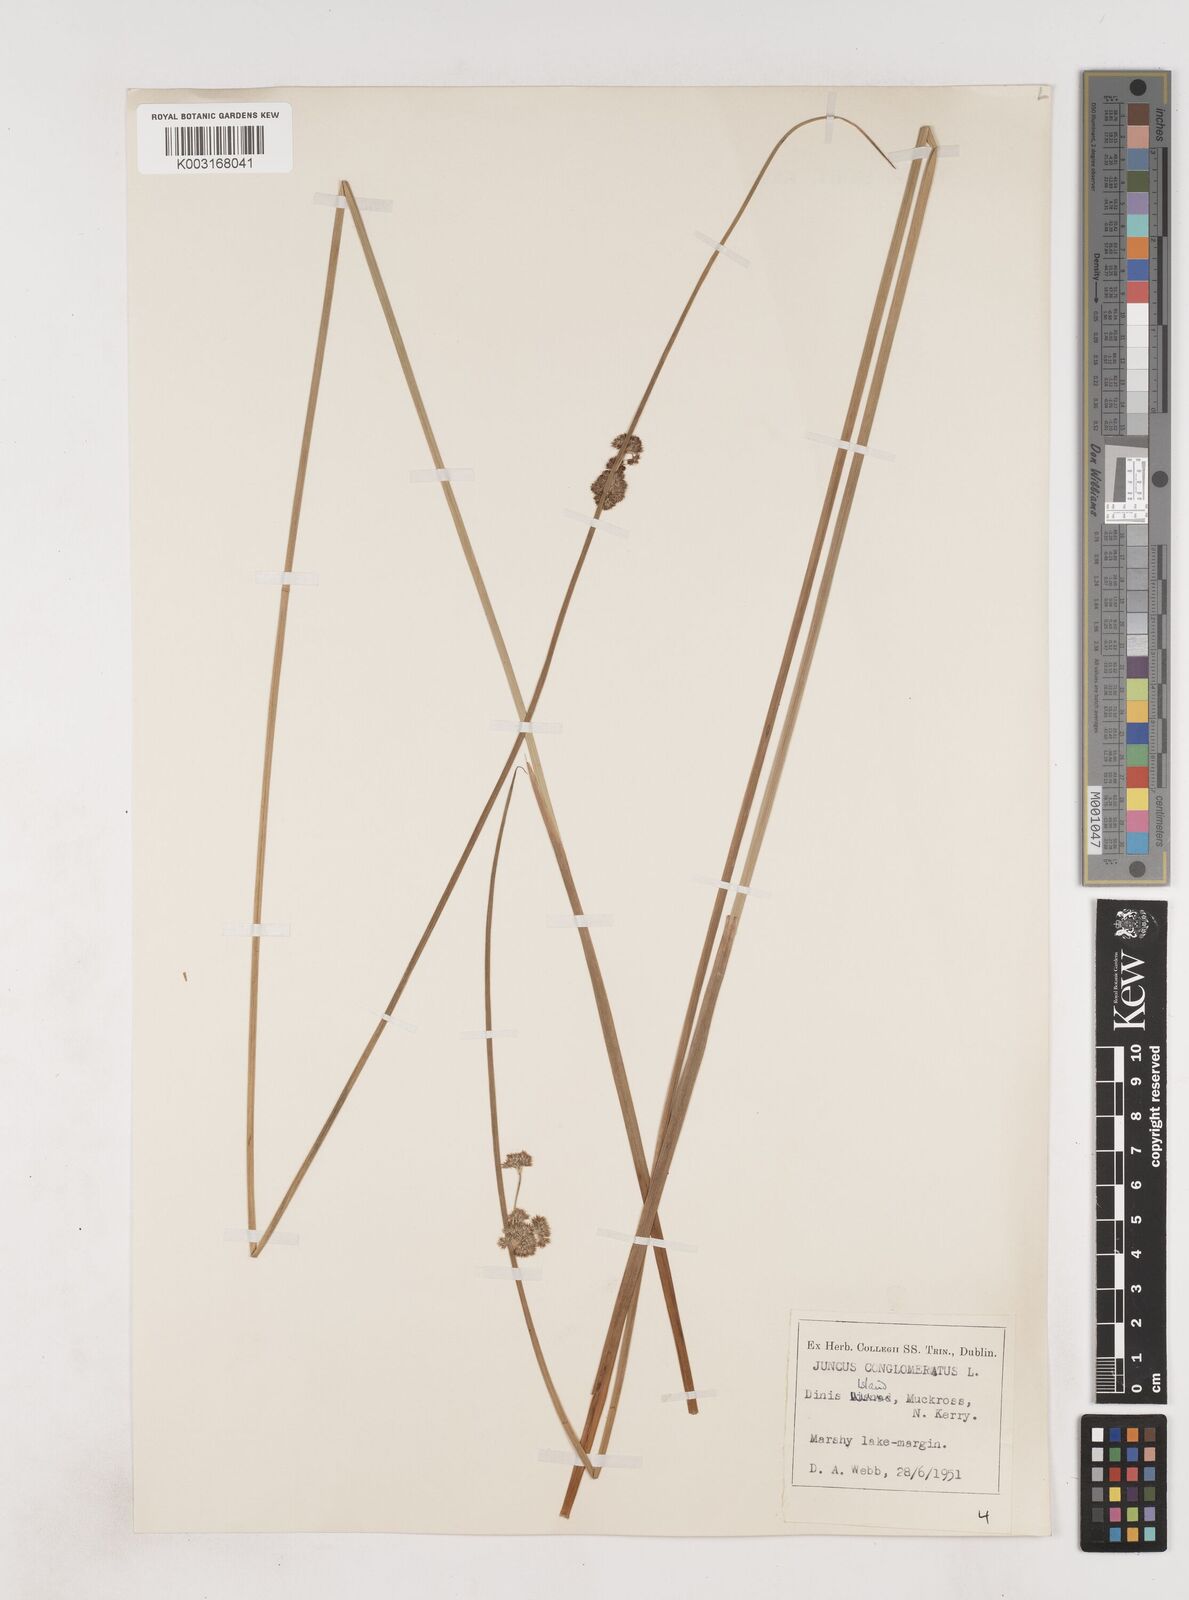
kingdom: Plantae
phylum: Tracheophyta
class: Liliopsida
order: Poales
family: Juncaceae
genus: Juncus
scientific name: Juncus conglomeratus
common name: Compact rush
